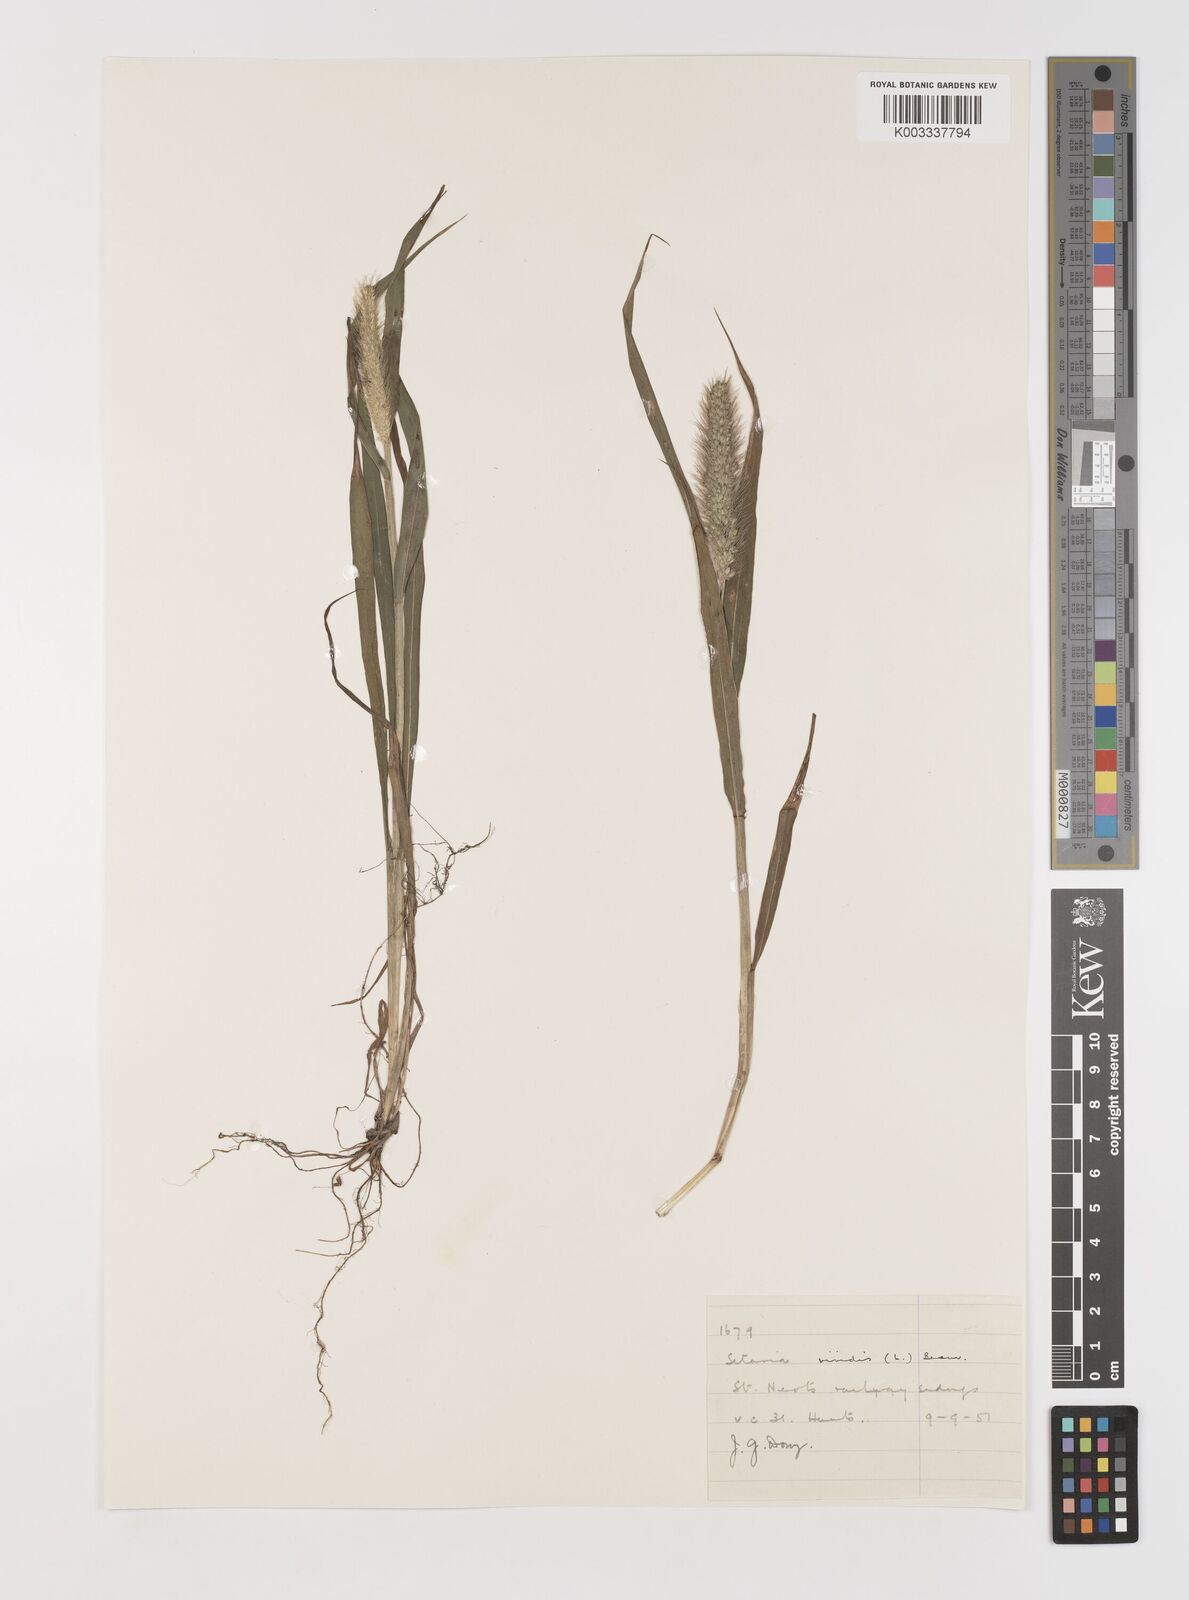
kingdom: Plantae
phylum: Tracheophyta
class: Liliopsida
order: Poales
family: Poaceae
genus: Setaria
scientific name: Setaria viridis
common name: Green bristlegrass
